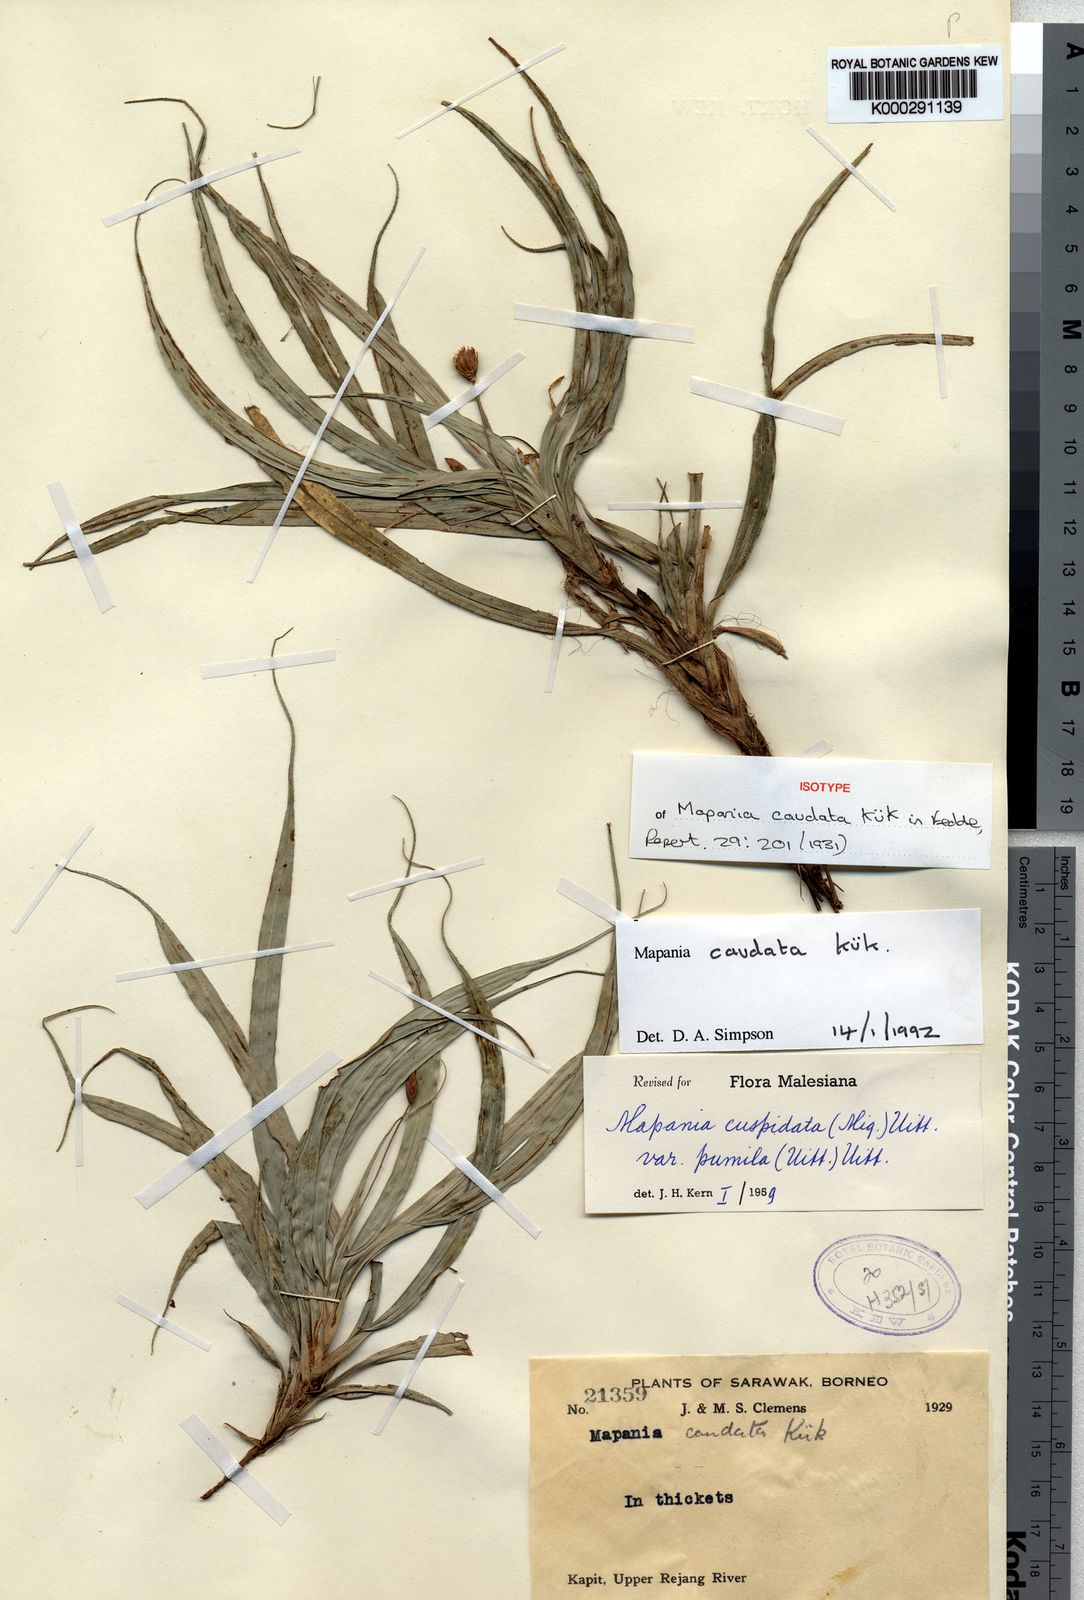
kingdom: Plantae
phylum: Tracheophyta
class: Liliopsida
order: Poales
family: Cyperaceae
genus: Mapania
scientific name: Mapania
